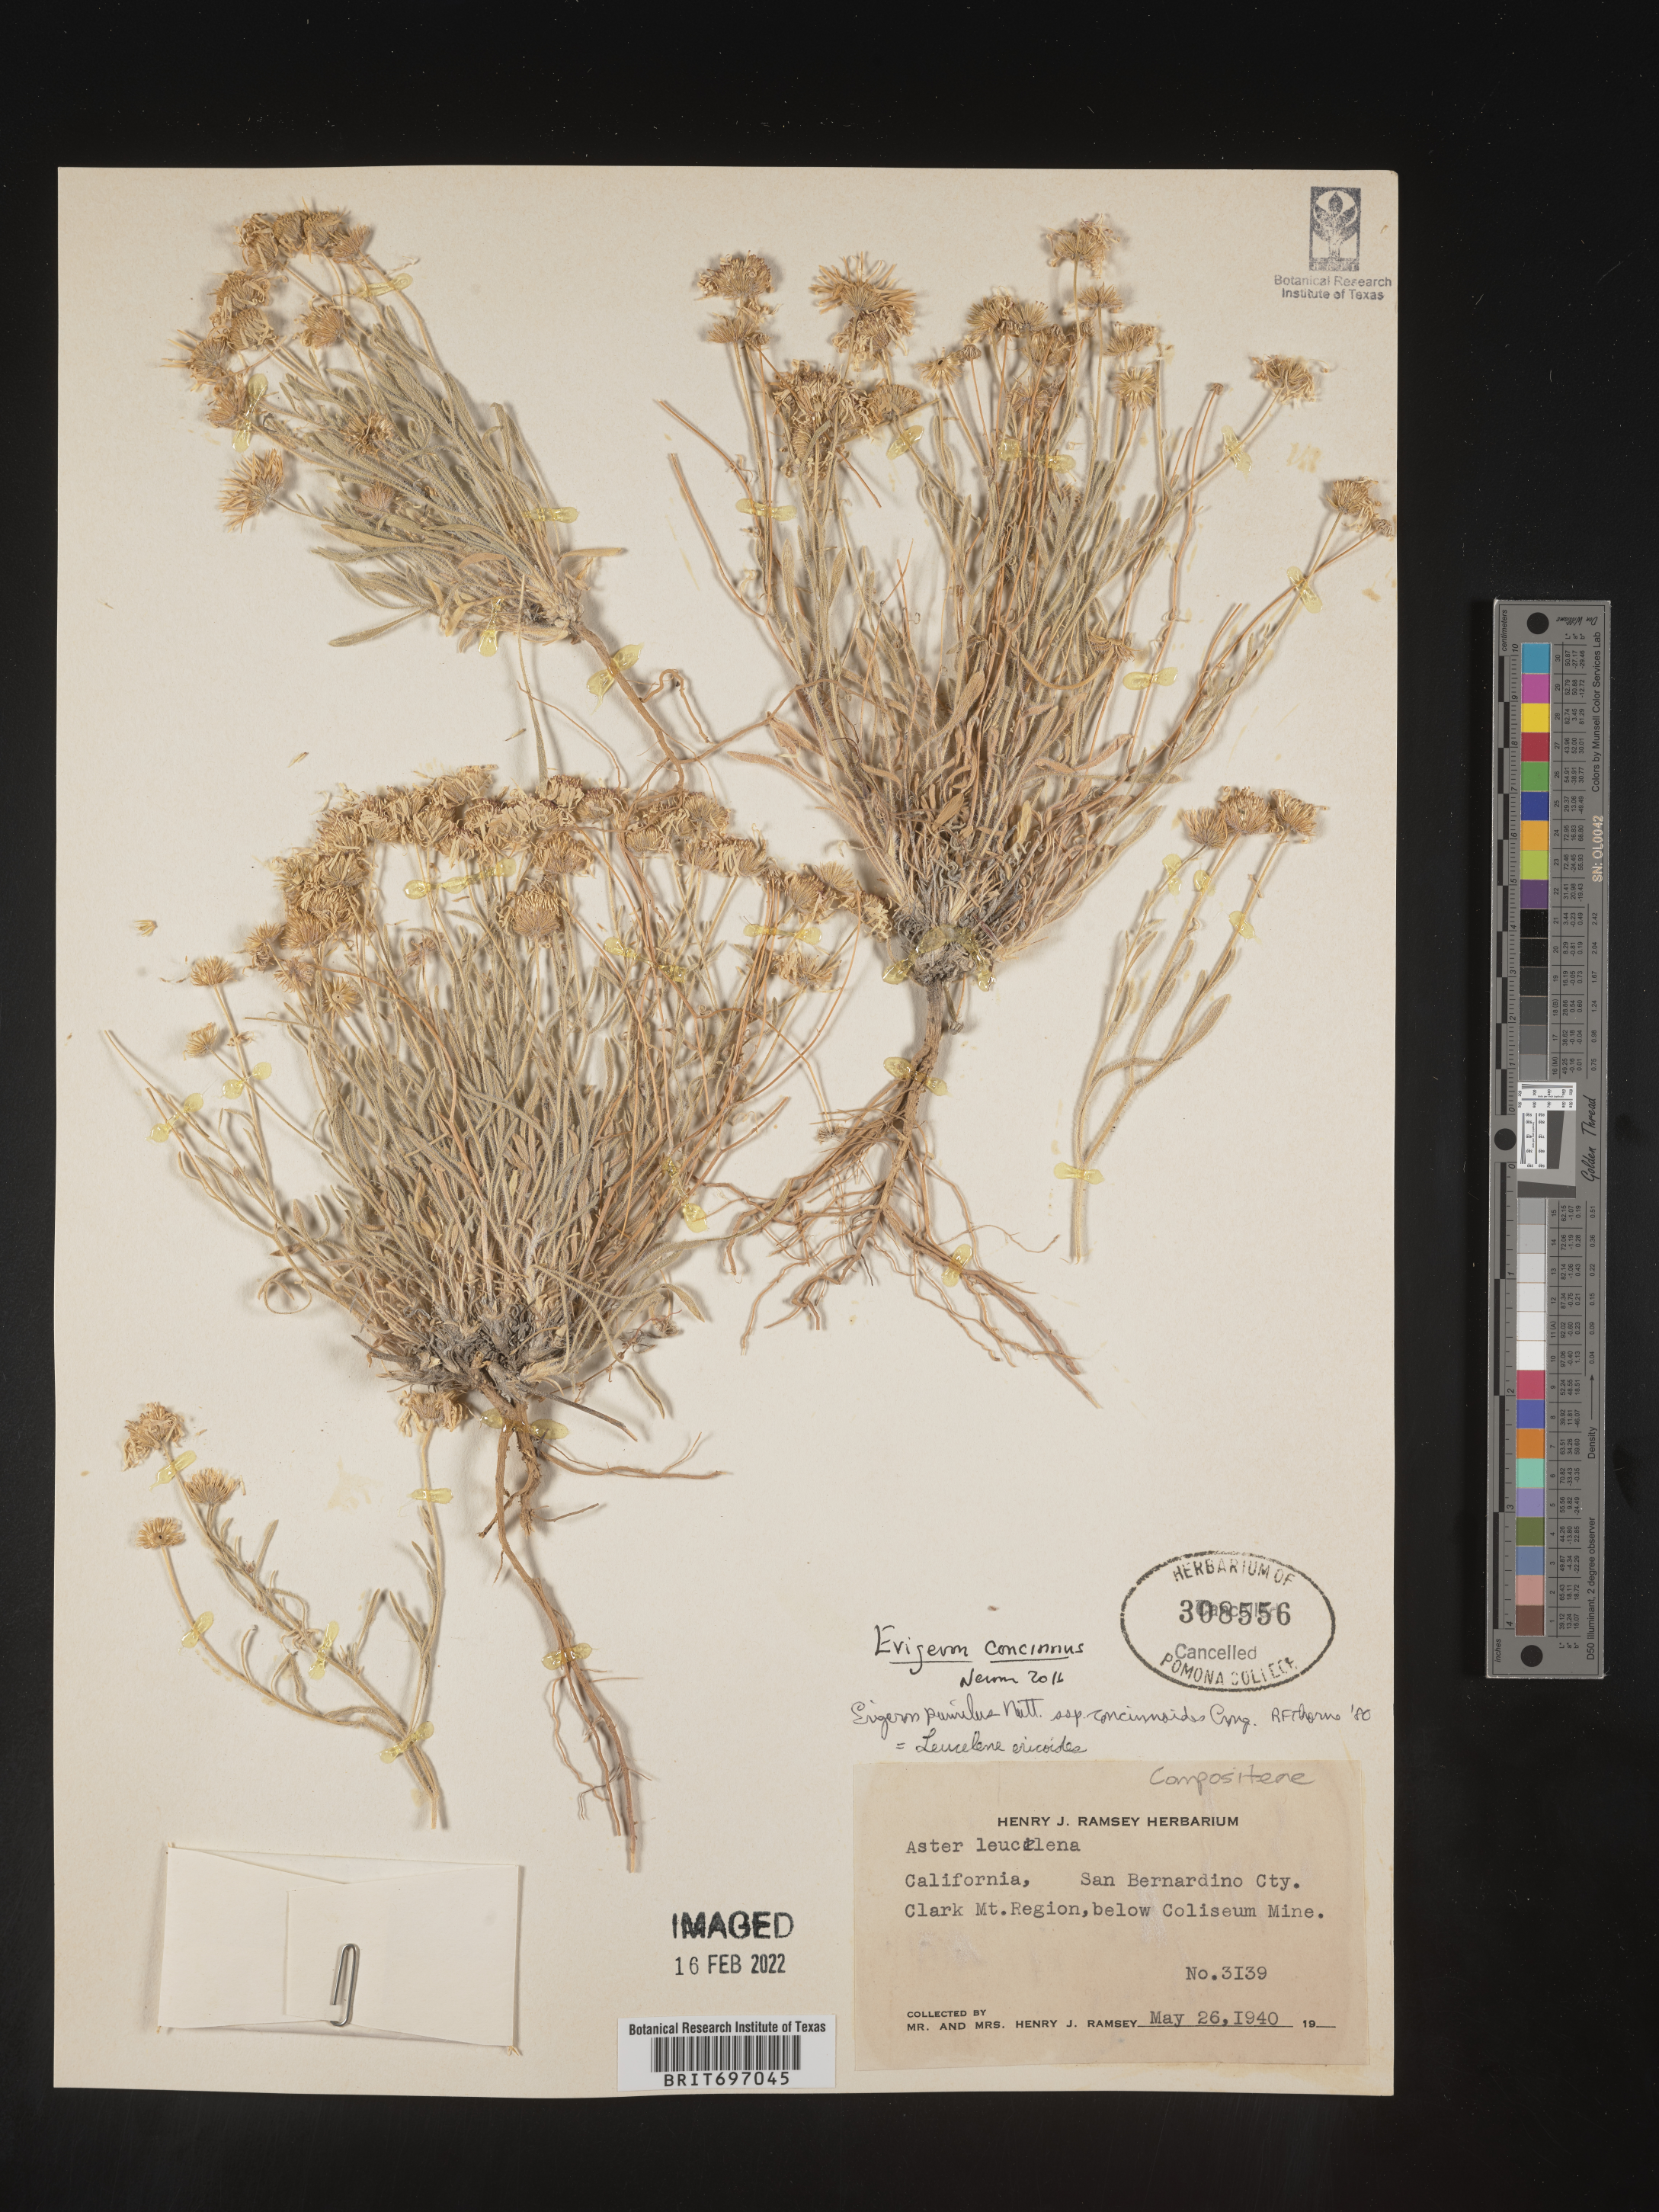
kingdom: Plantae
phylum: Tracheophyta
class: Magnoliopsida
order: Asterales
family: Asteraceae
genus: Erigeron
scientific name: Erigeron concinnus
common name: Navajo fleabane
